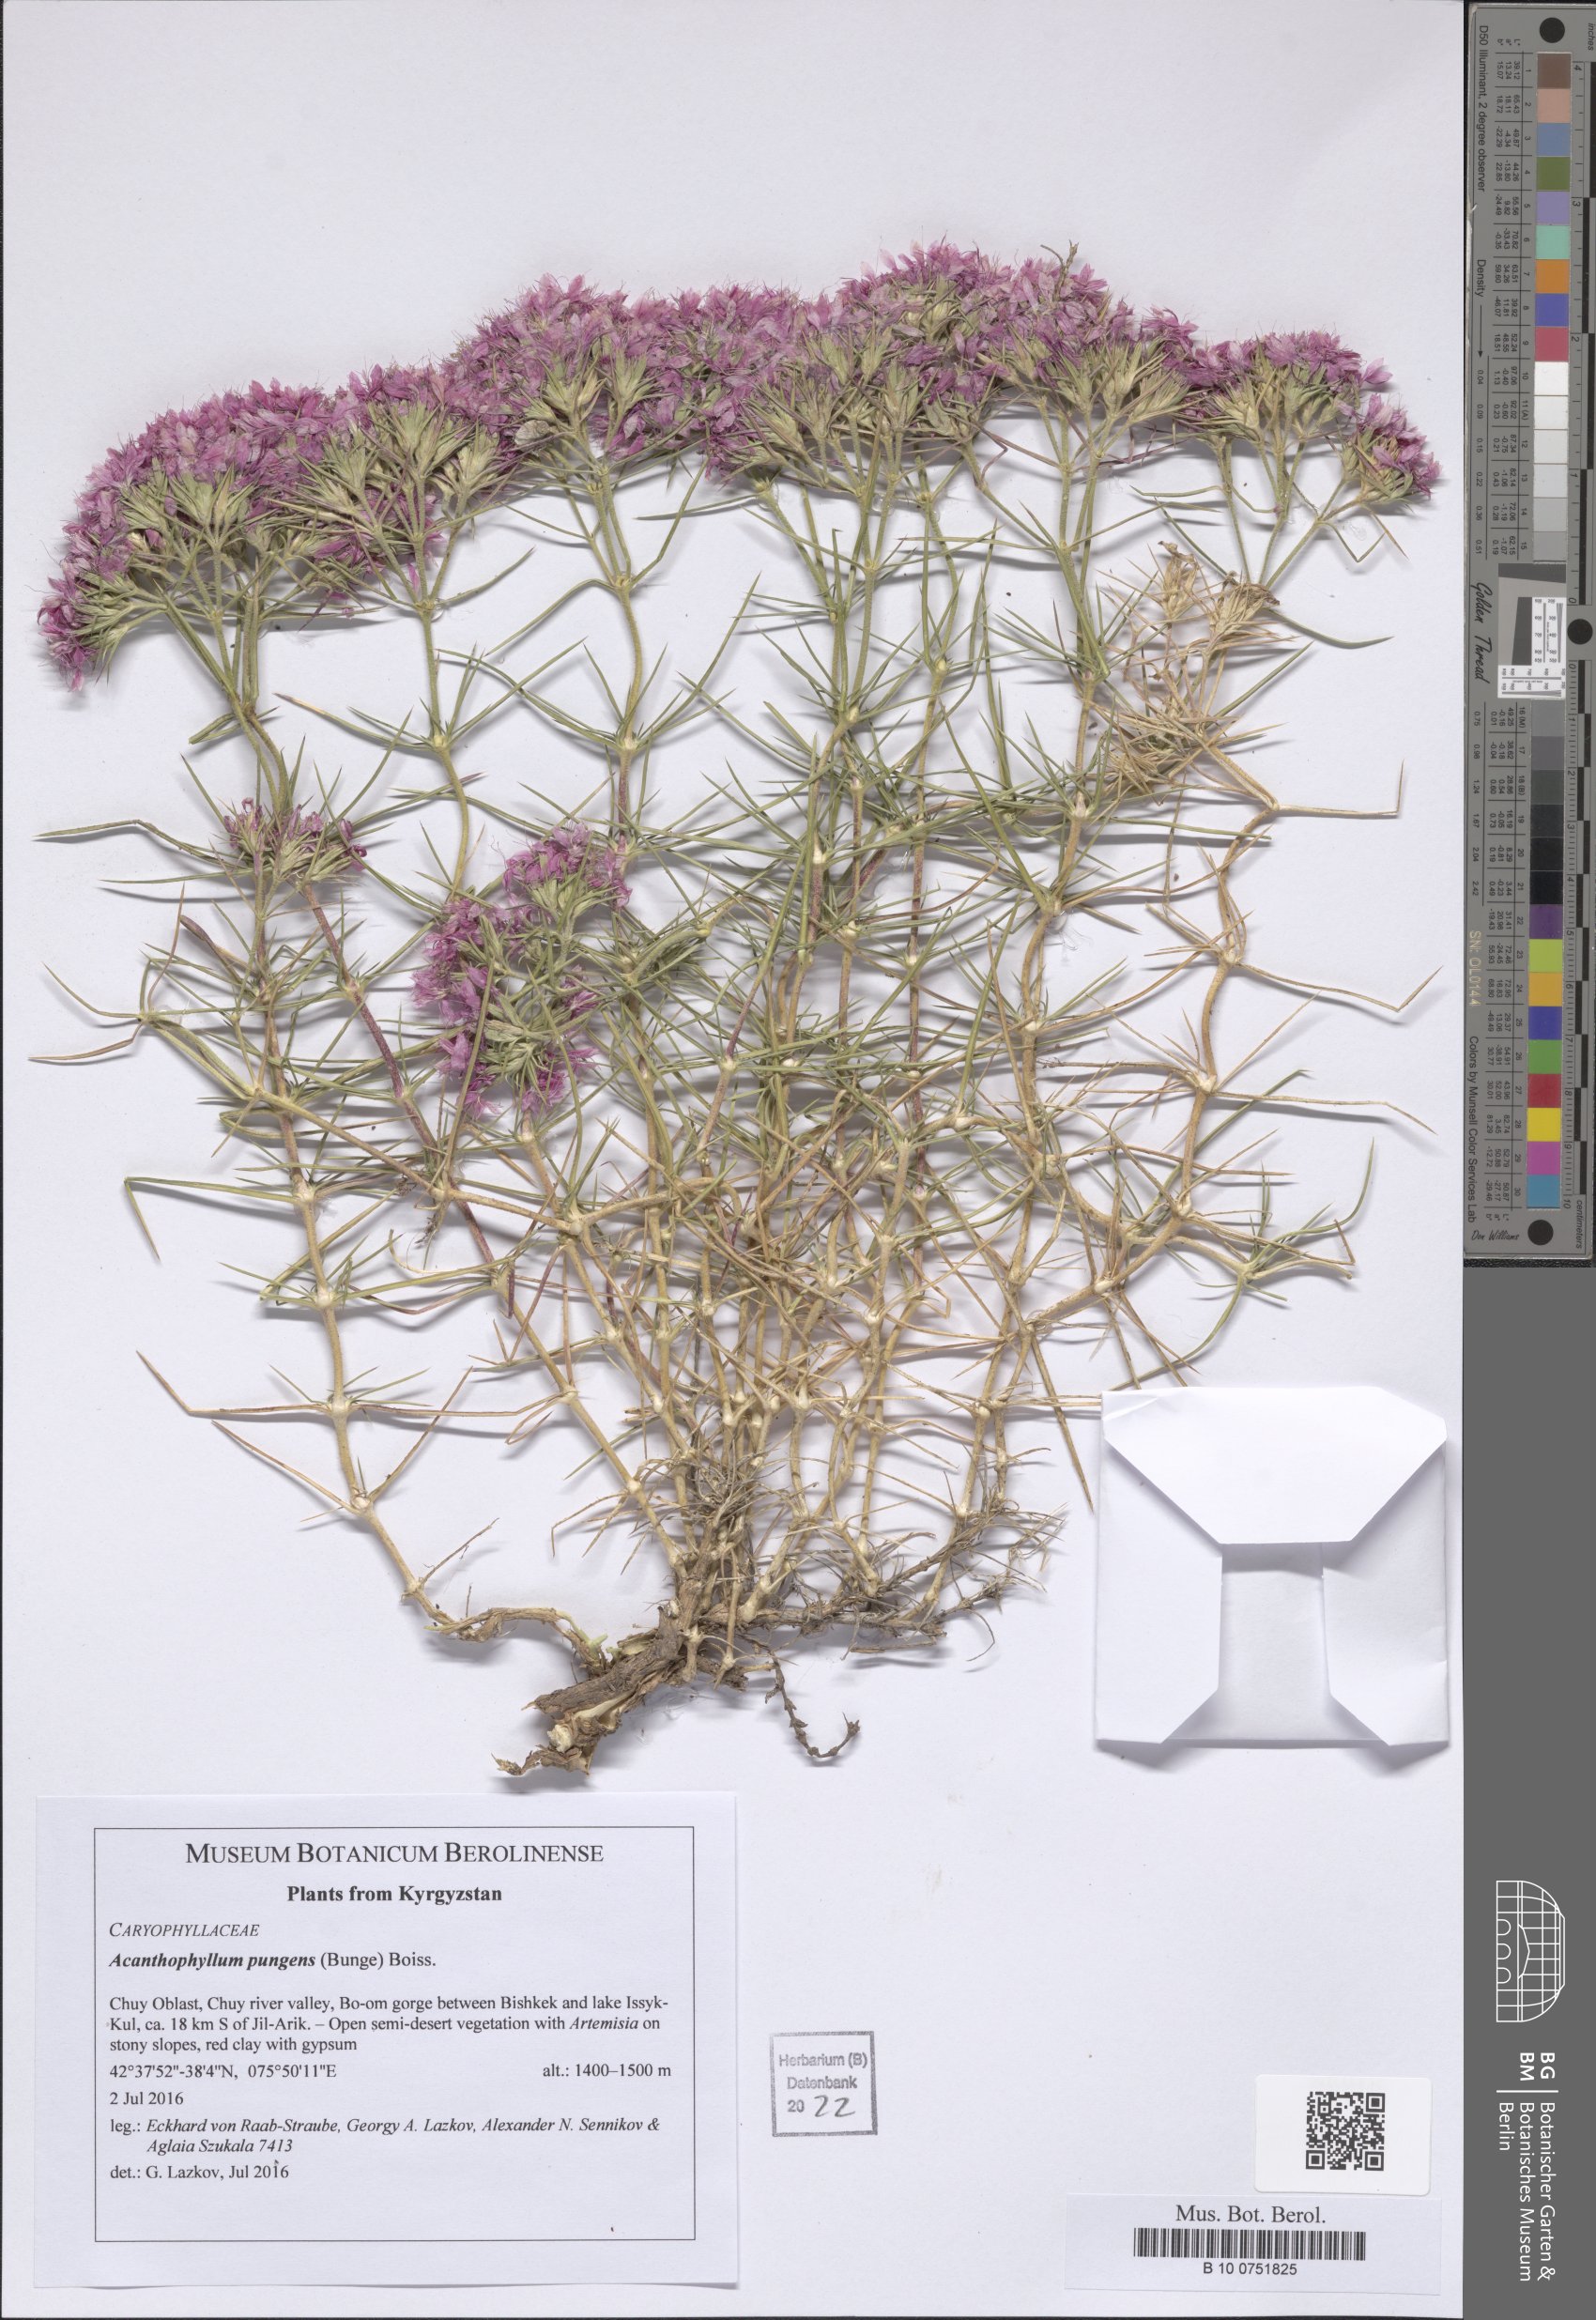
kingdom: Plantae
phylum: Tracheophyta
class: Magnoliopsida
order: Caryophyllales
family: Caryophyllaceae
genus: Acanthophyllum
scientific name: Acanthophyllum pungens
